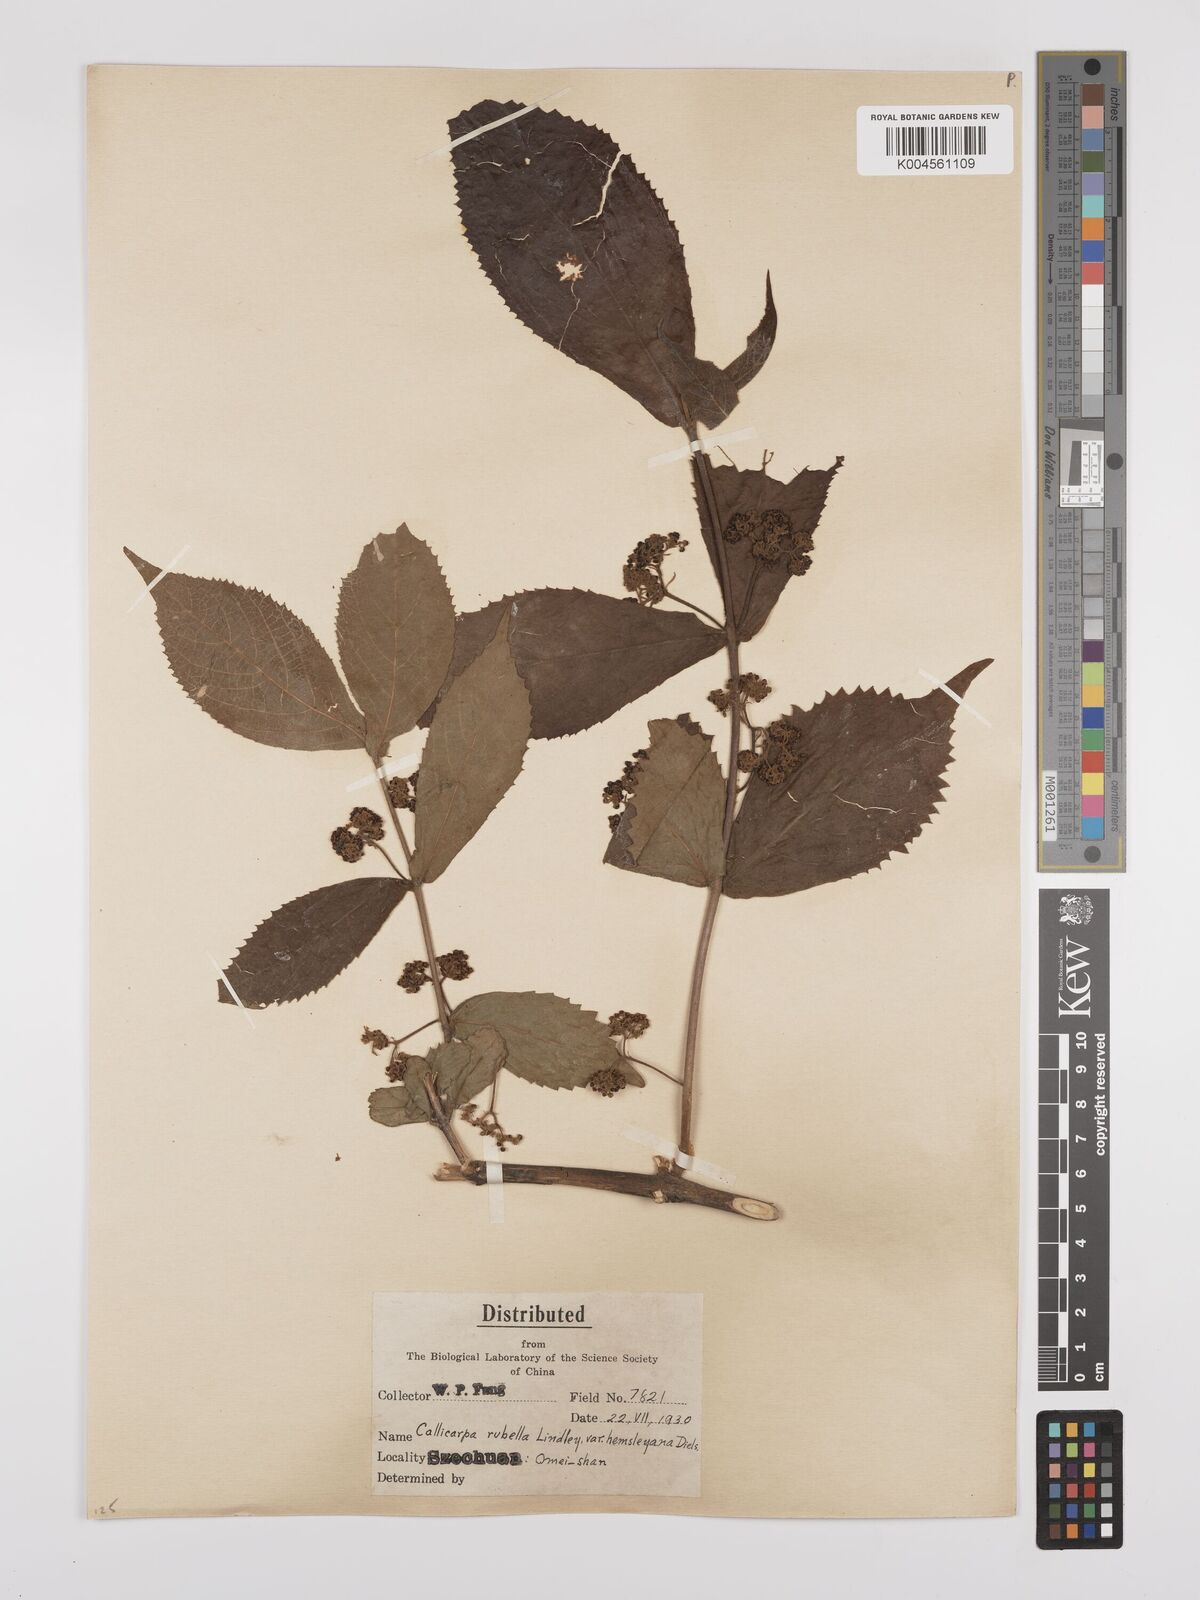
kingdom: Plantae
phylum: Tracheophyta
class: Magnoliopsida
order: Lamiales
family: Lamiaceae
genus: Callicarpa
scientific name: Callicarpa rubella
